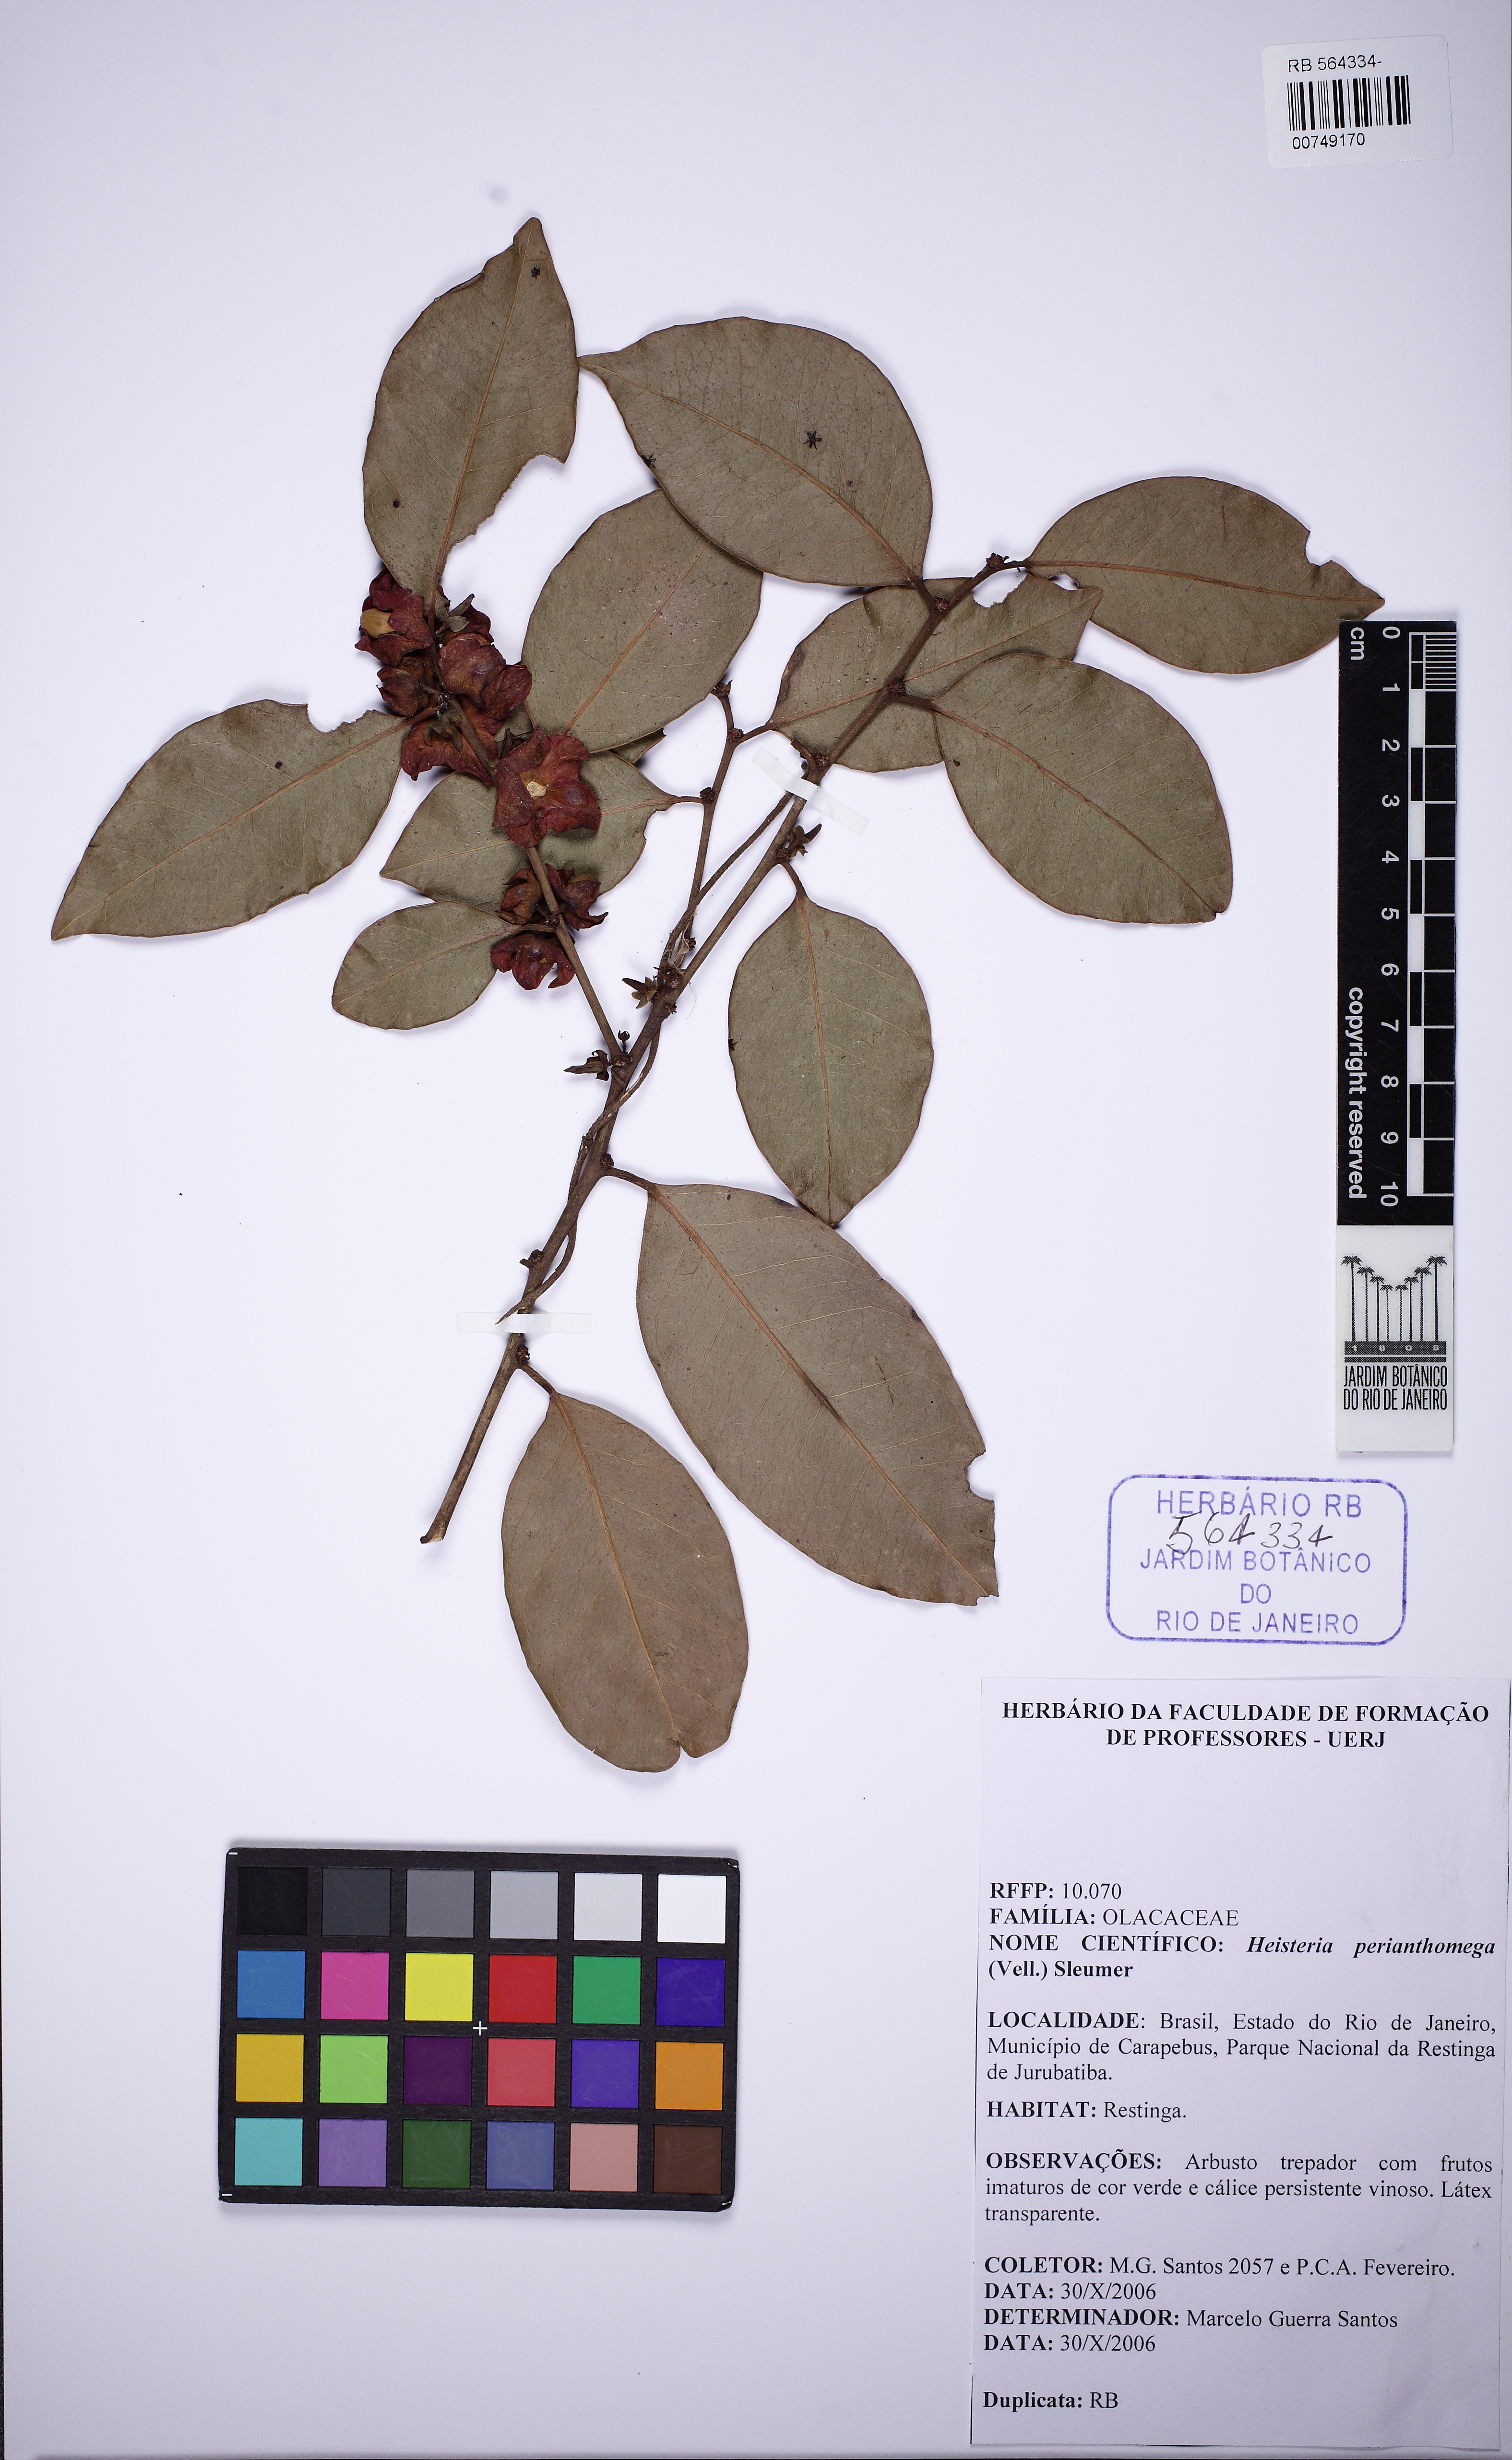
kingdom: Plantae
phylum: Tracheophyta
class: Magnoliopsida
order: Santalales
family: Erythropalaceae
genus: Heisteria
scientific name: Heisteria perianthomega
